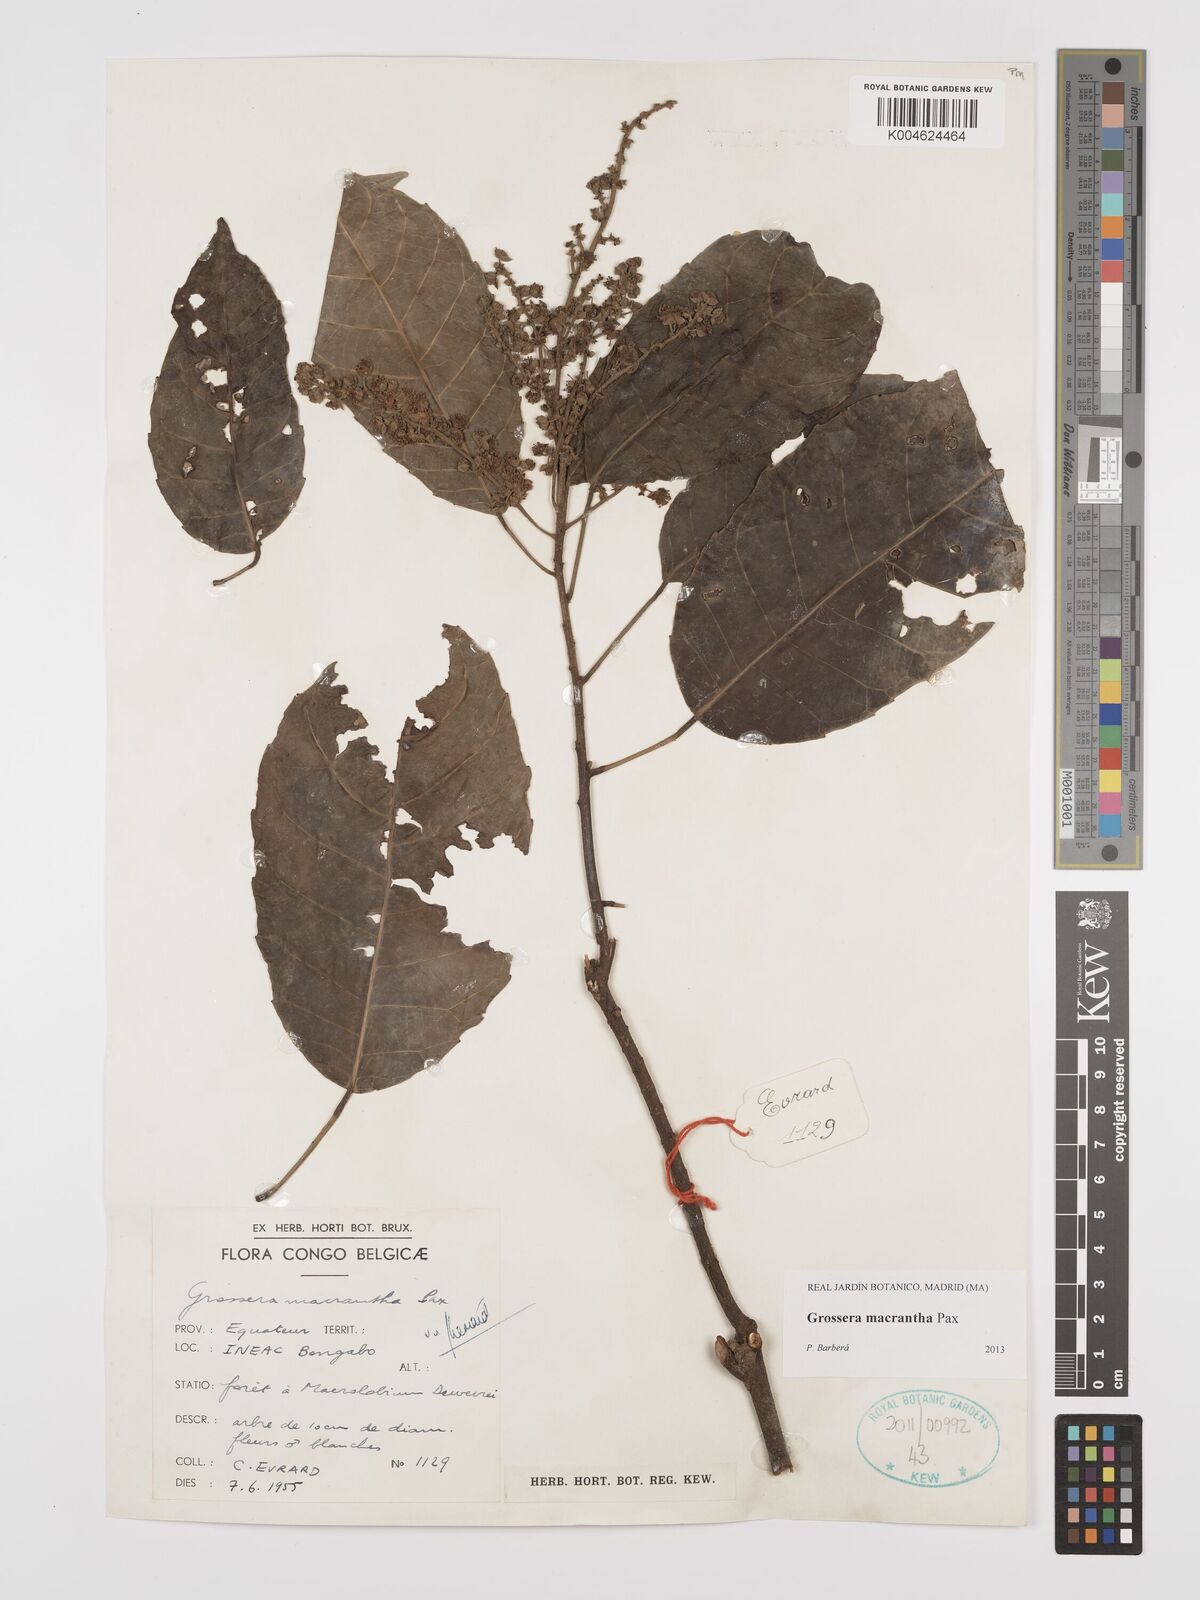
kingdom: Plantae
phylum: Tracheophyta
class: Magnoliopsida
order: Malpighiales
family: Euphorbiaceae
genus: Grossera
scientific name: Grossera macrantha
